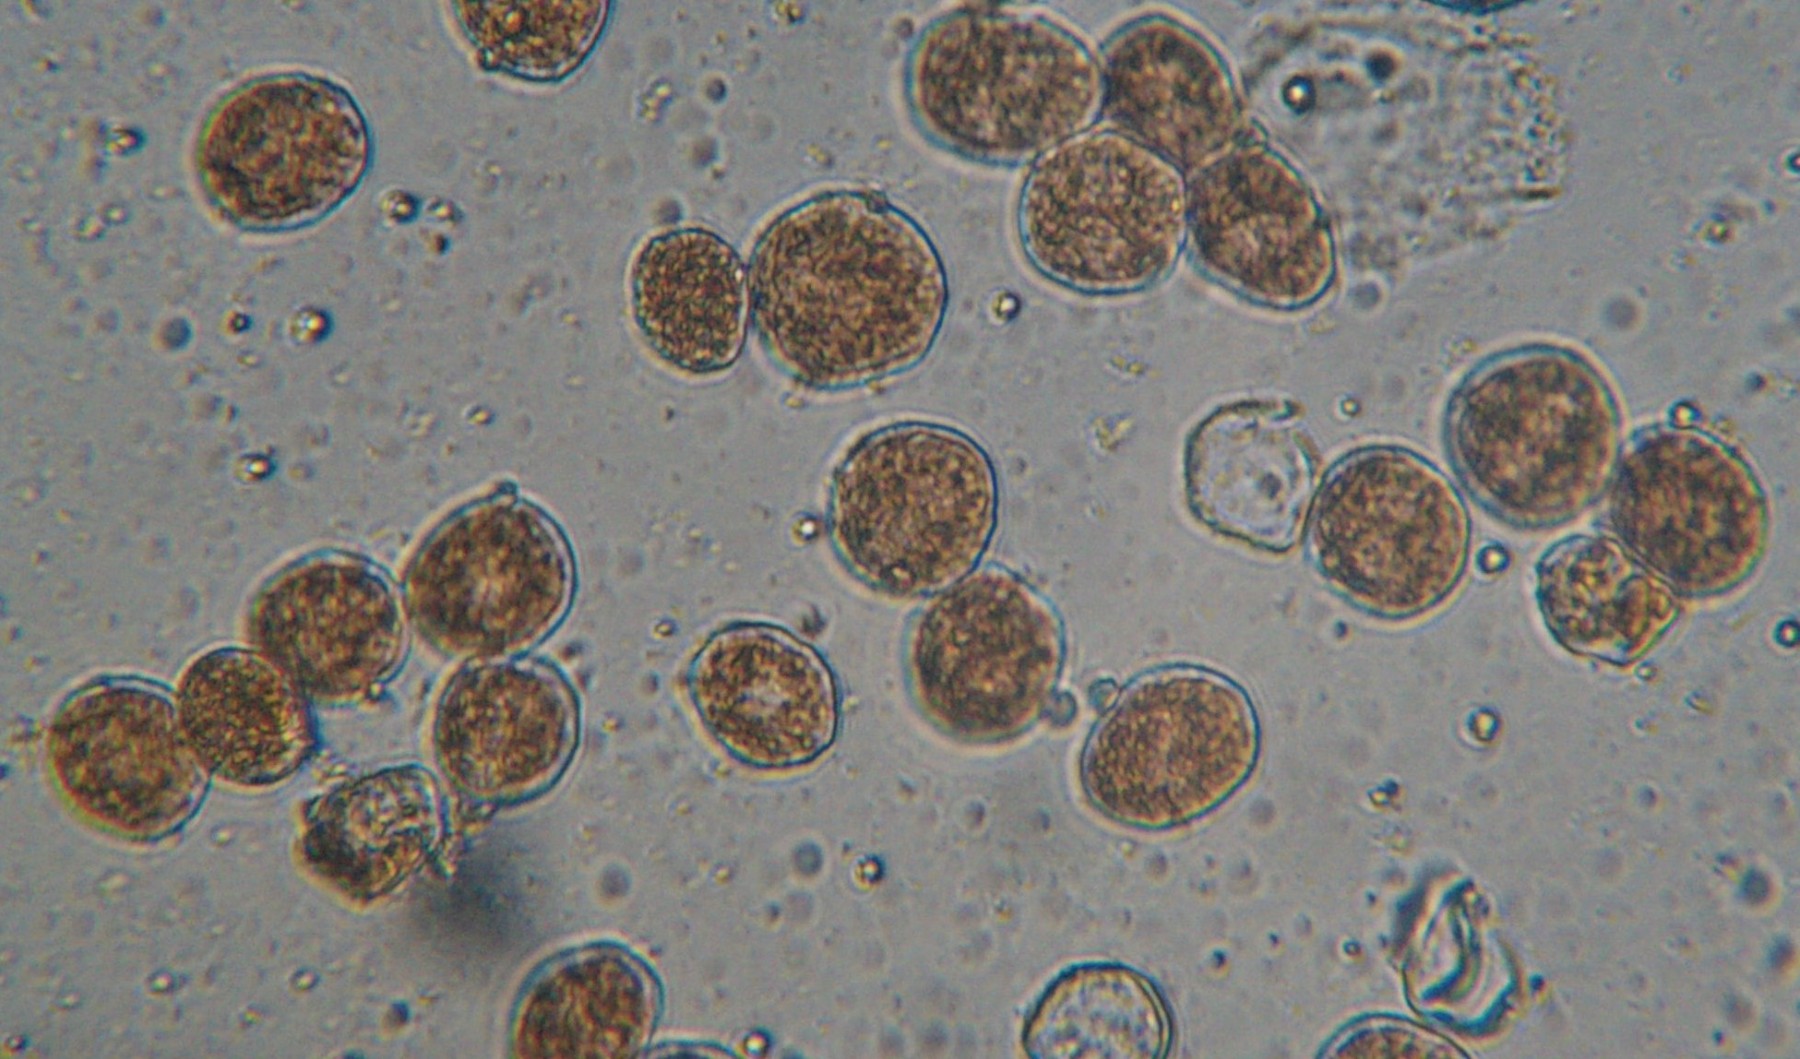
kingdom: Fungi
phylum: Basidiomycota
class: Pucciniomycetes
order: Pucciniales
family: Pucciniaceae
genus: Uromyces
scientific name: Uromyces dactylidis
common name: ranunkel-encellerust
